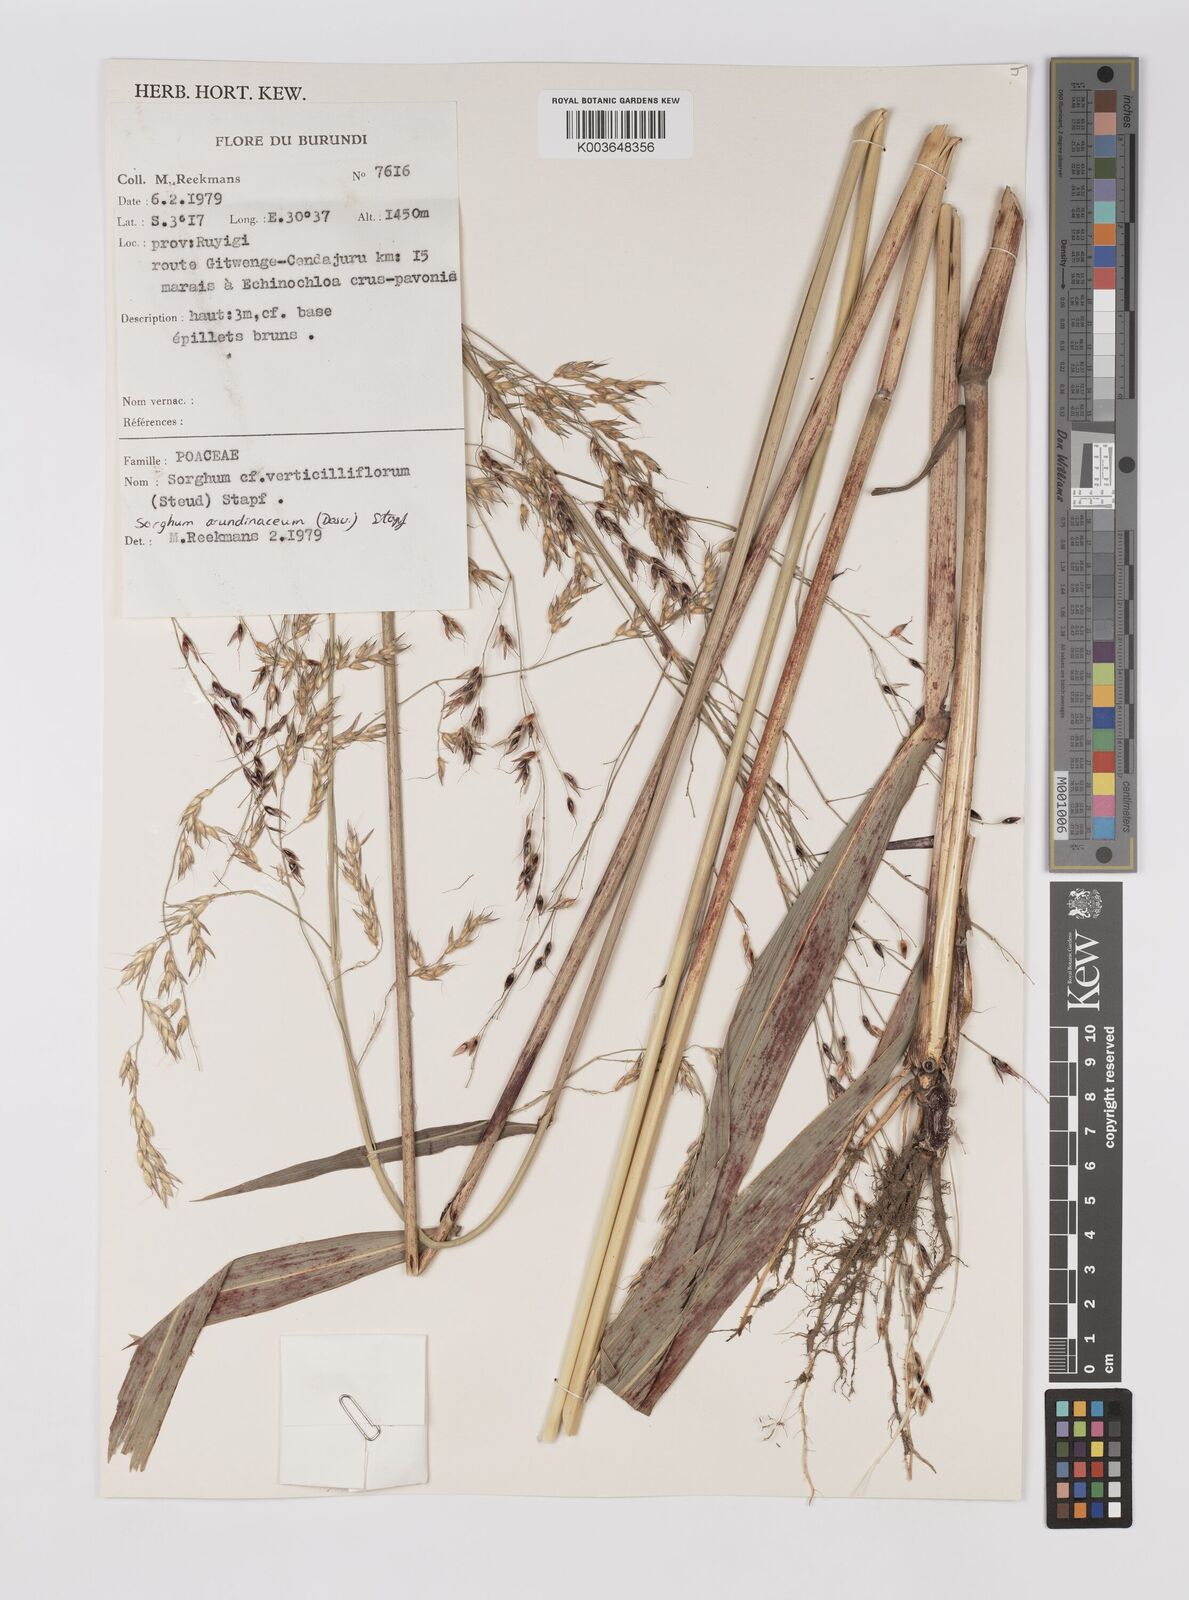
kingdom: Plantae
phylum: Tracheophyta
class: Liliopsida
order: Poales
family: Poaceae
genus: Sorghum
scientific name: Sorghum arundinaceum
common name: Sorghum
